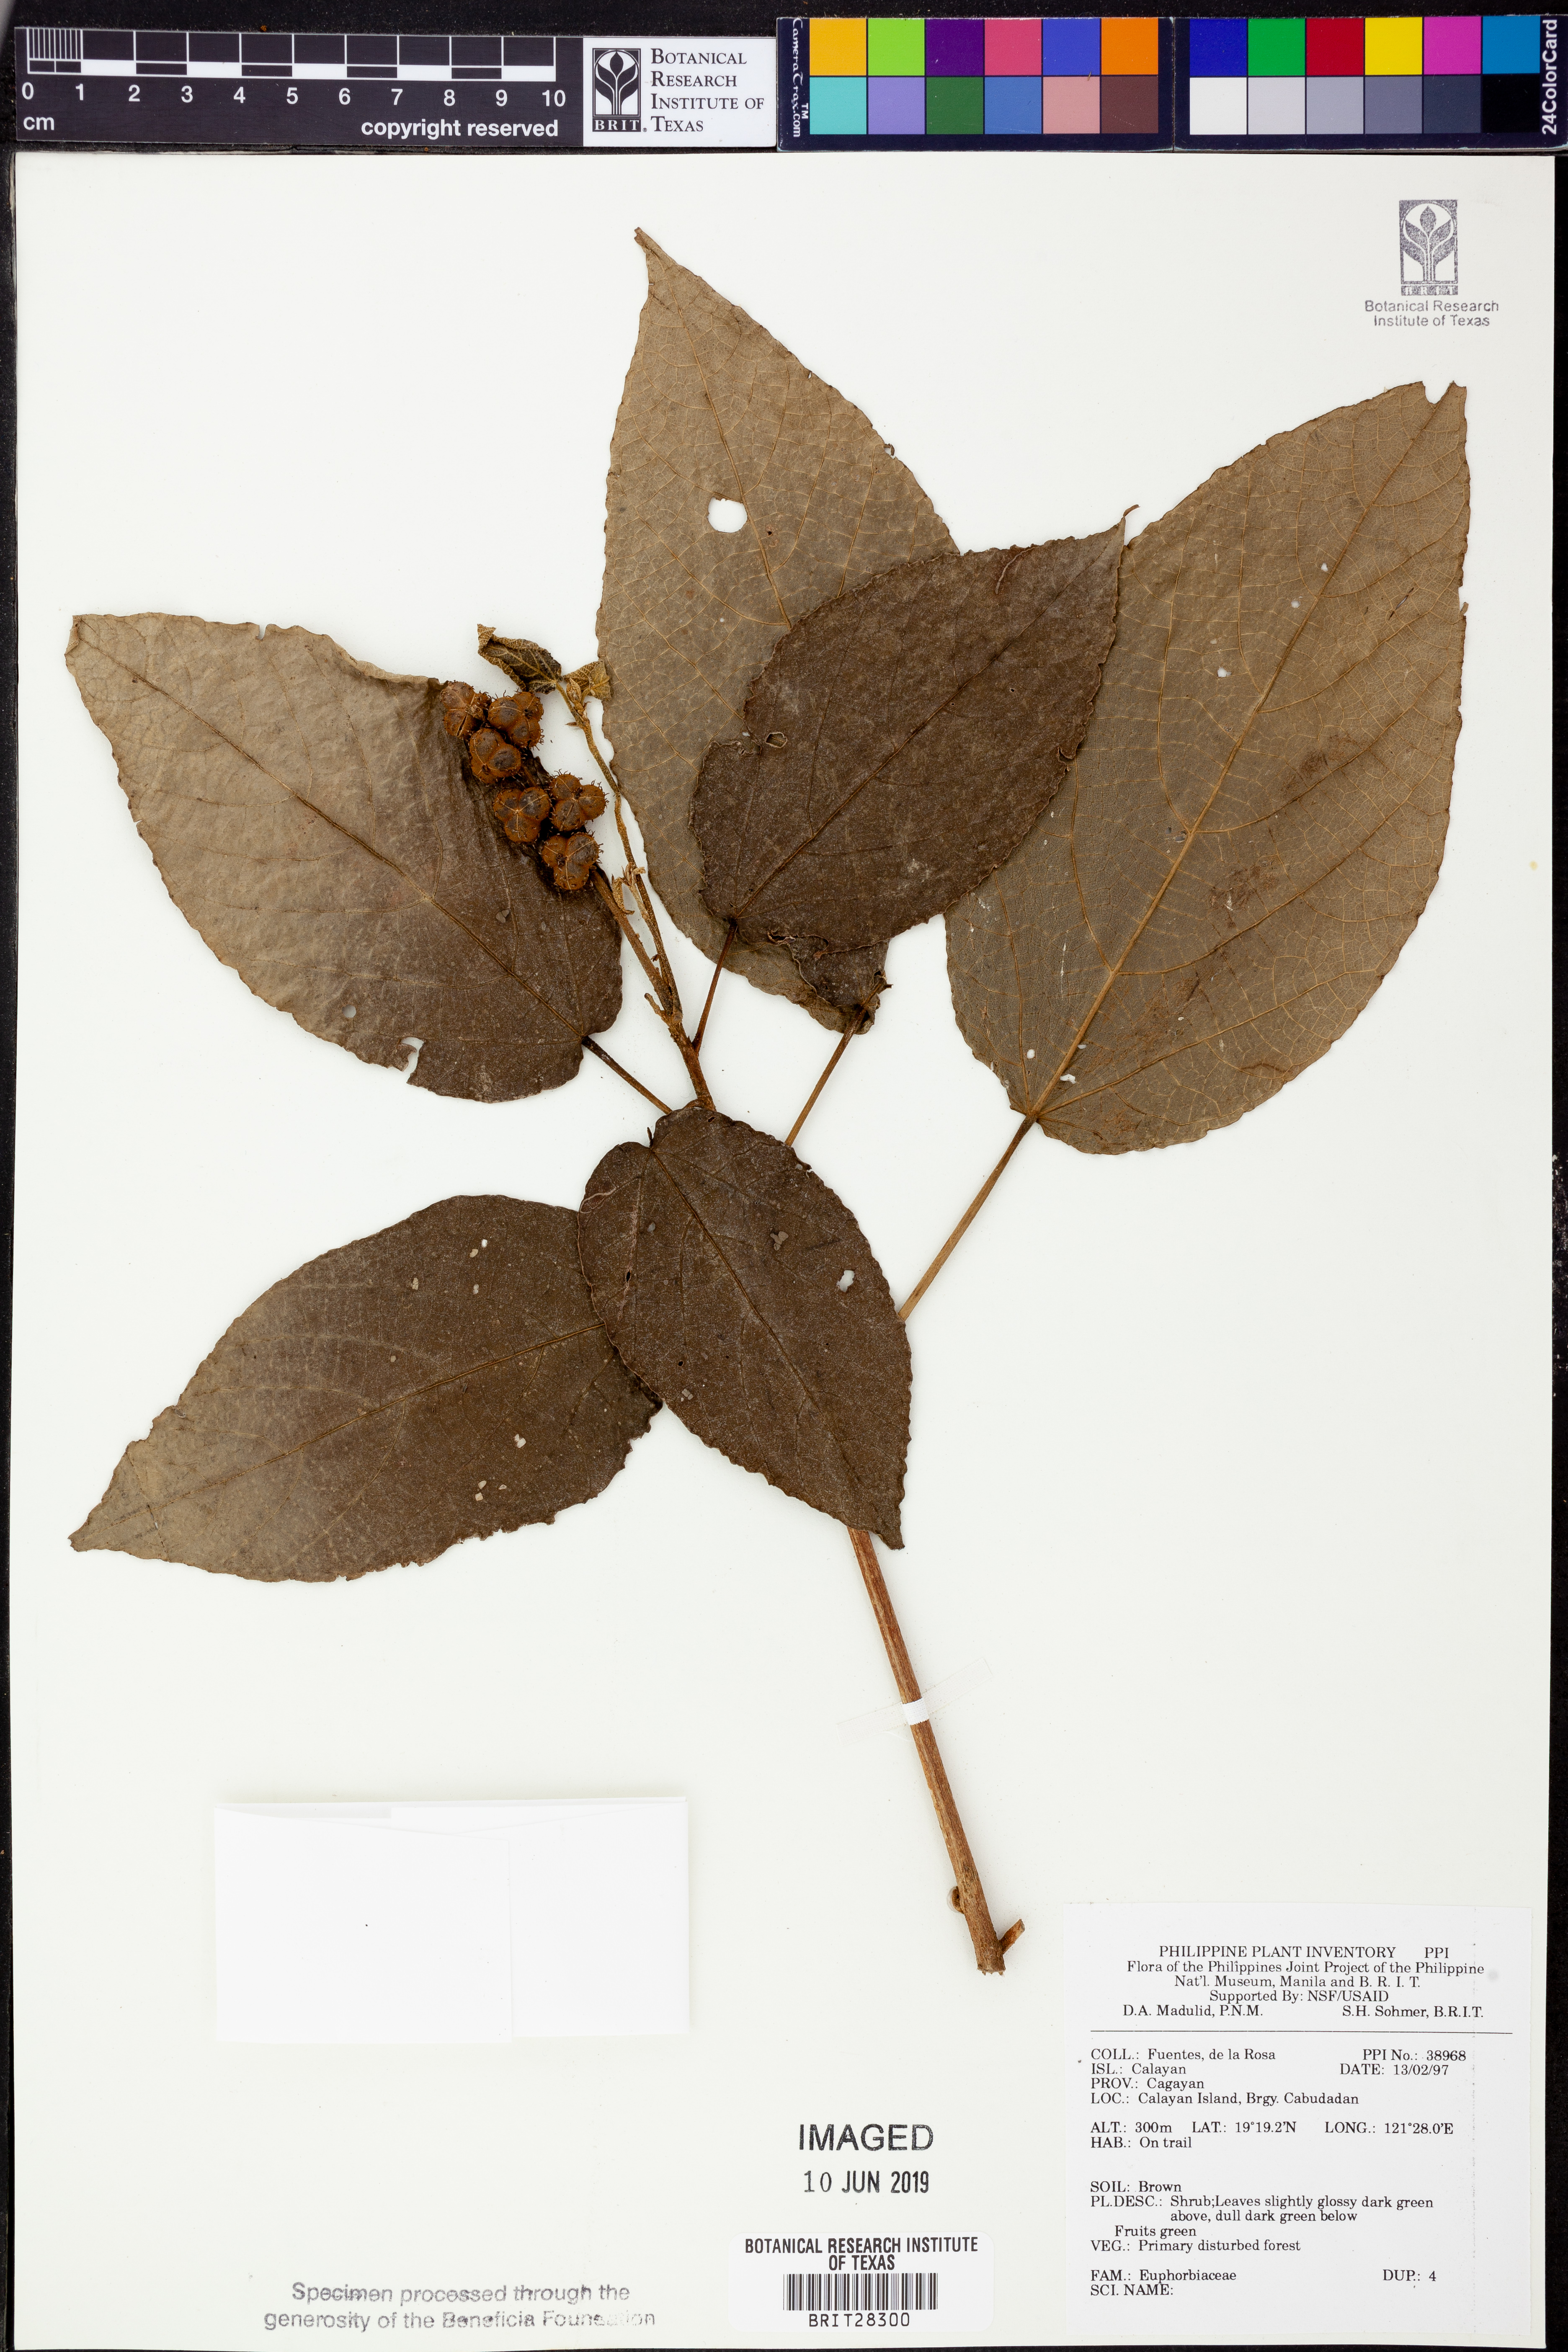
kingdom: Plantae
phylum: Tracheophyta
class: Magnoliopsida
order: Malpighiales
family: Euphorbiaceae
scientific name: Euphorbiaceae
